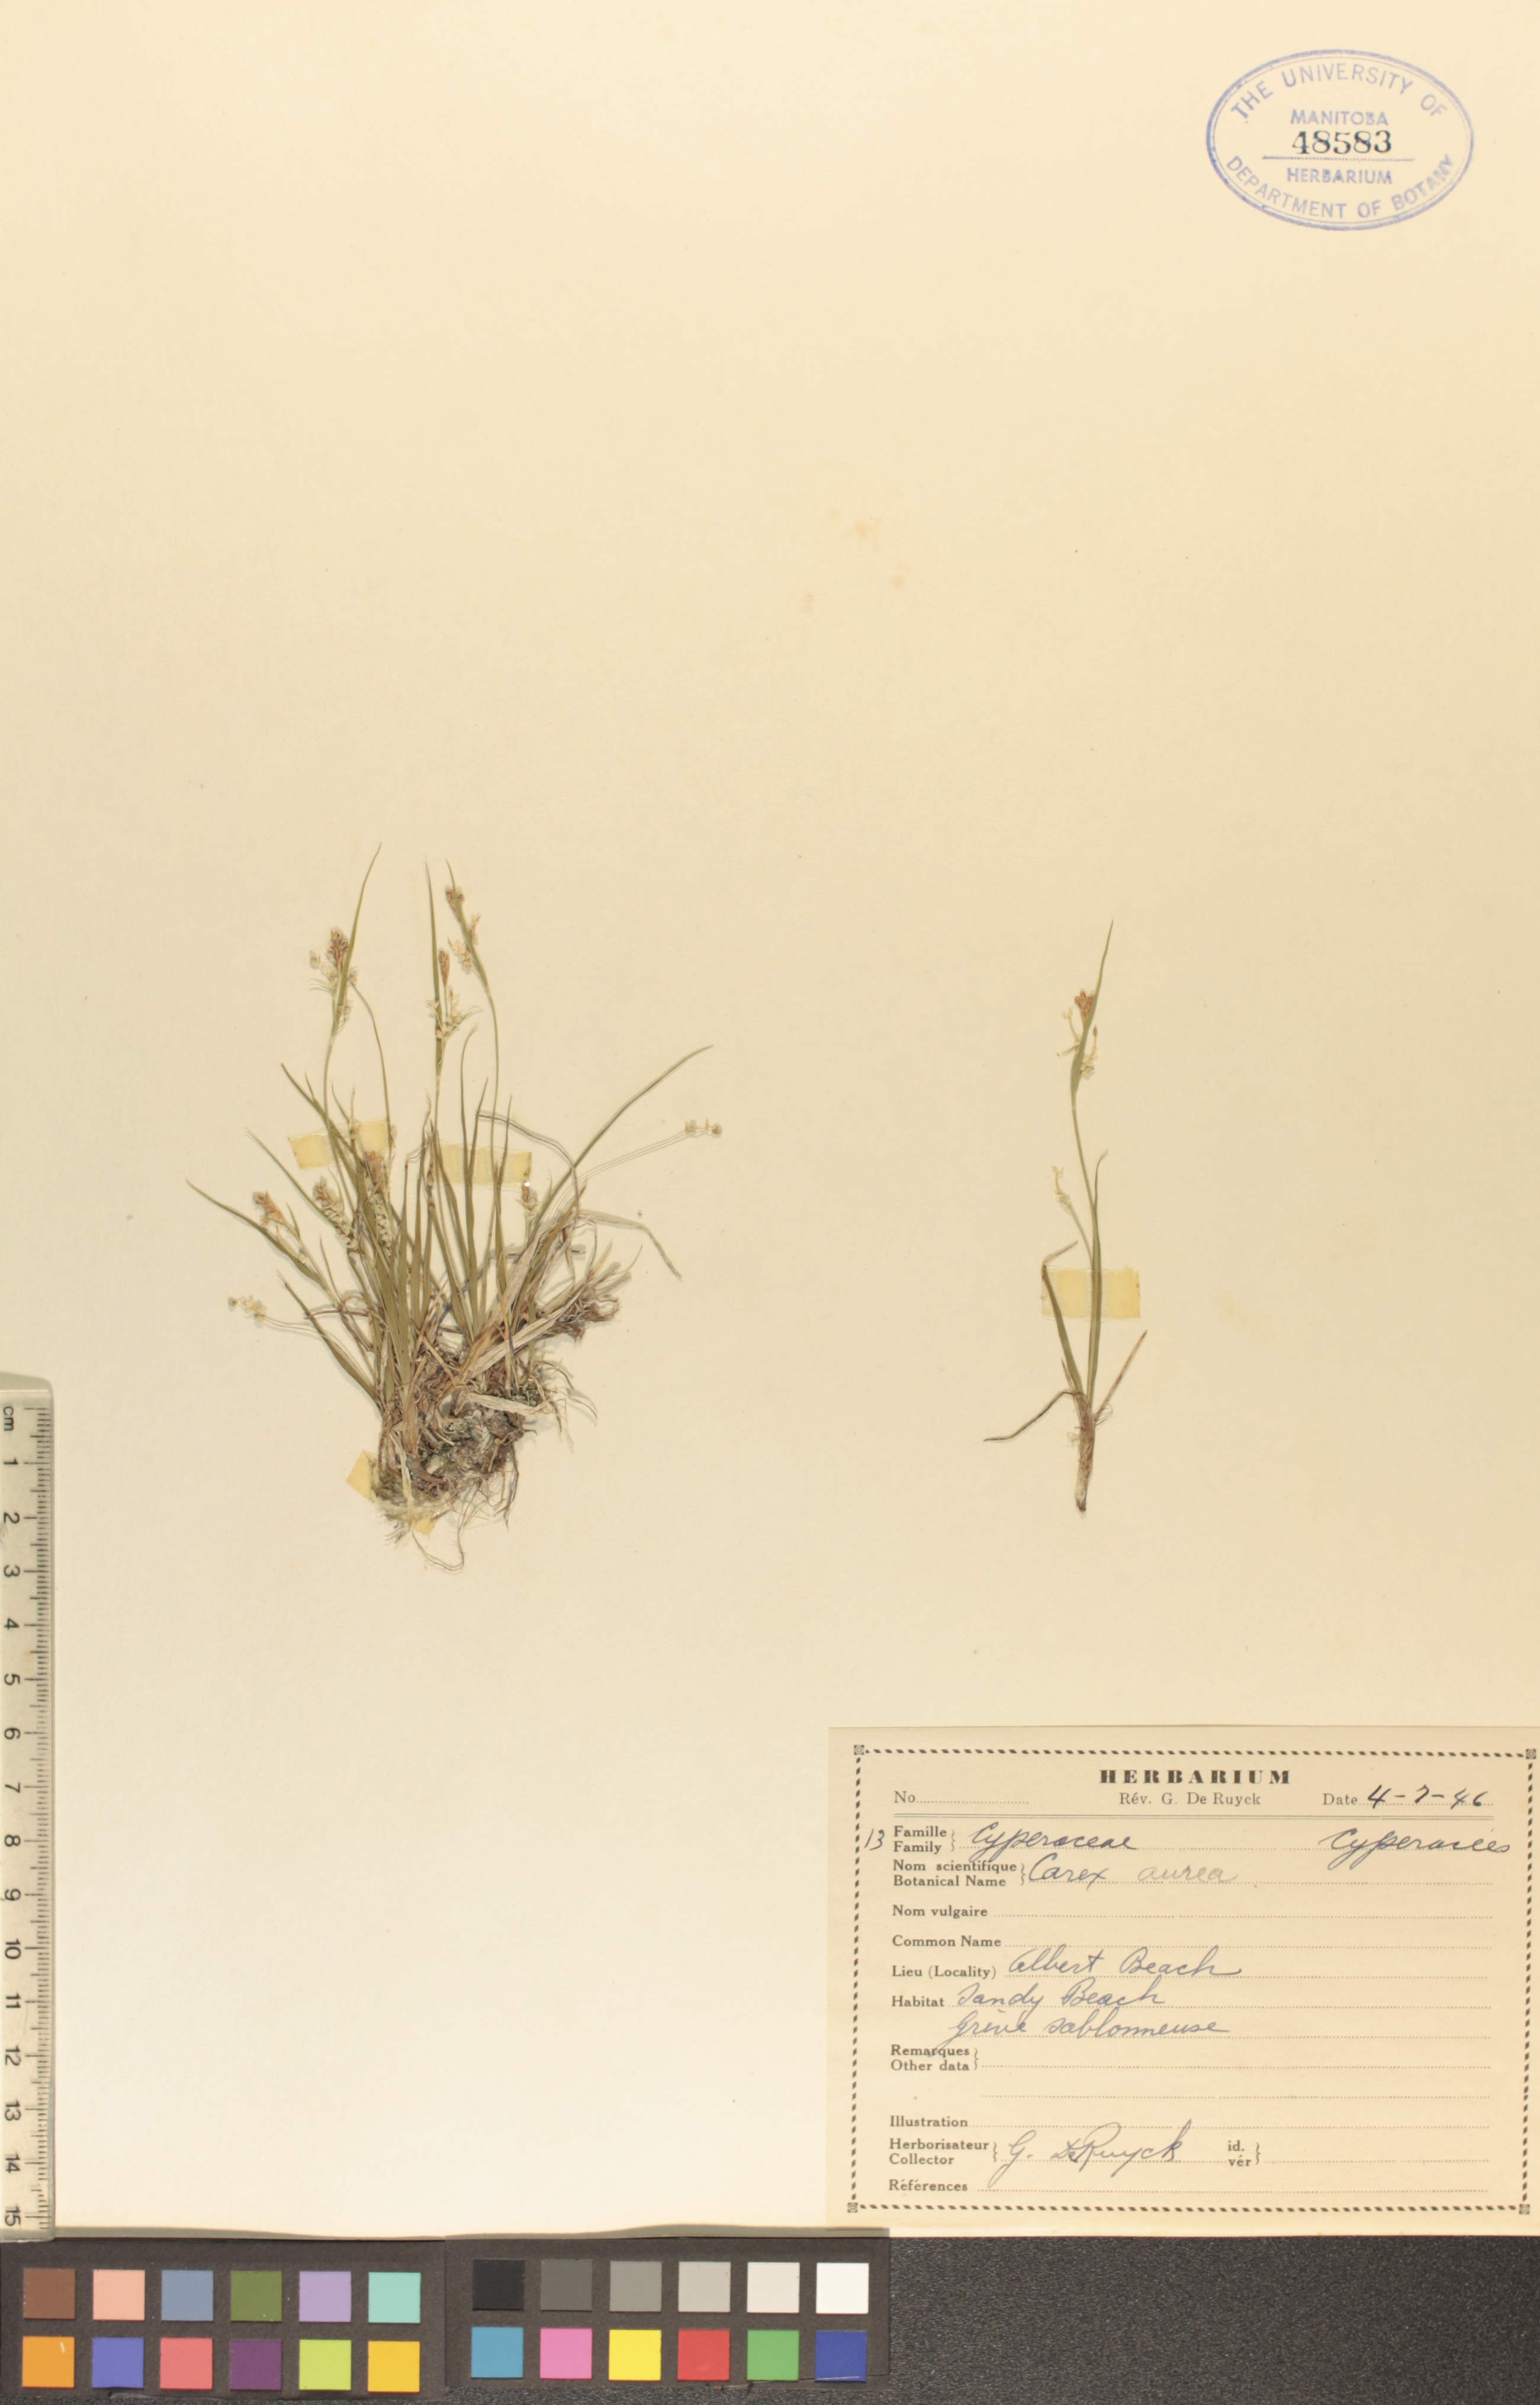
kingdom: Plantae
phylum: Tracheophyta
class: Liliopsida
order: Poales
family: Cyperaceae
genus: Carex
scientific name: Carex aurea
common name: Golden sedge
